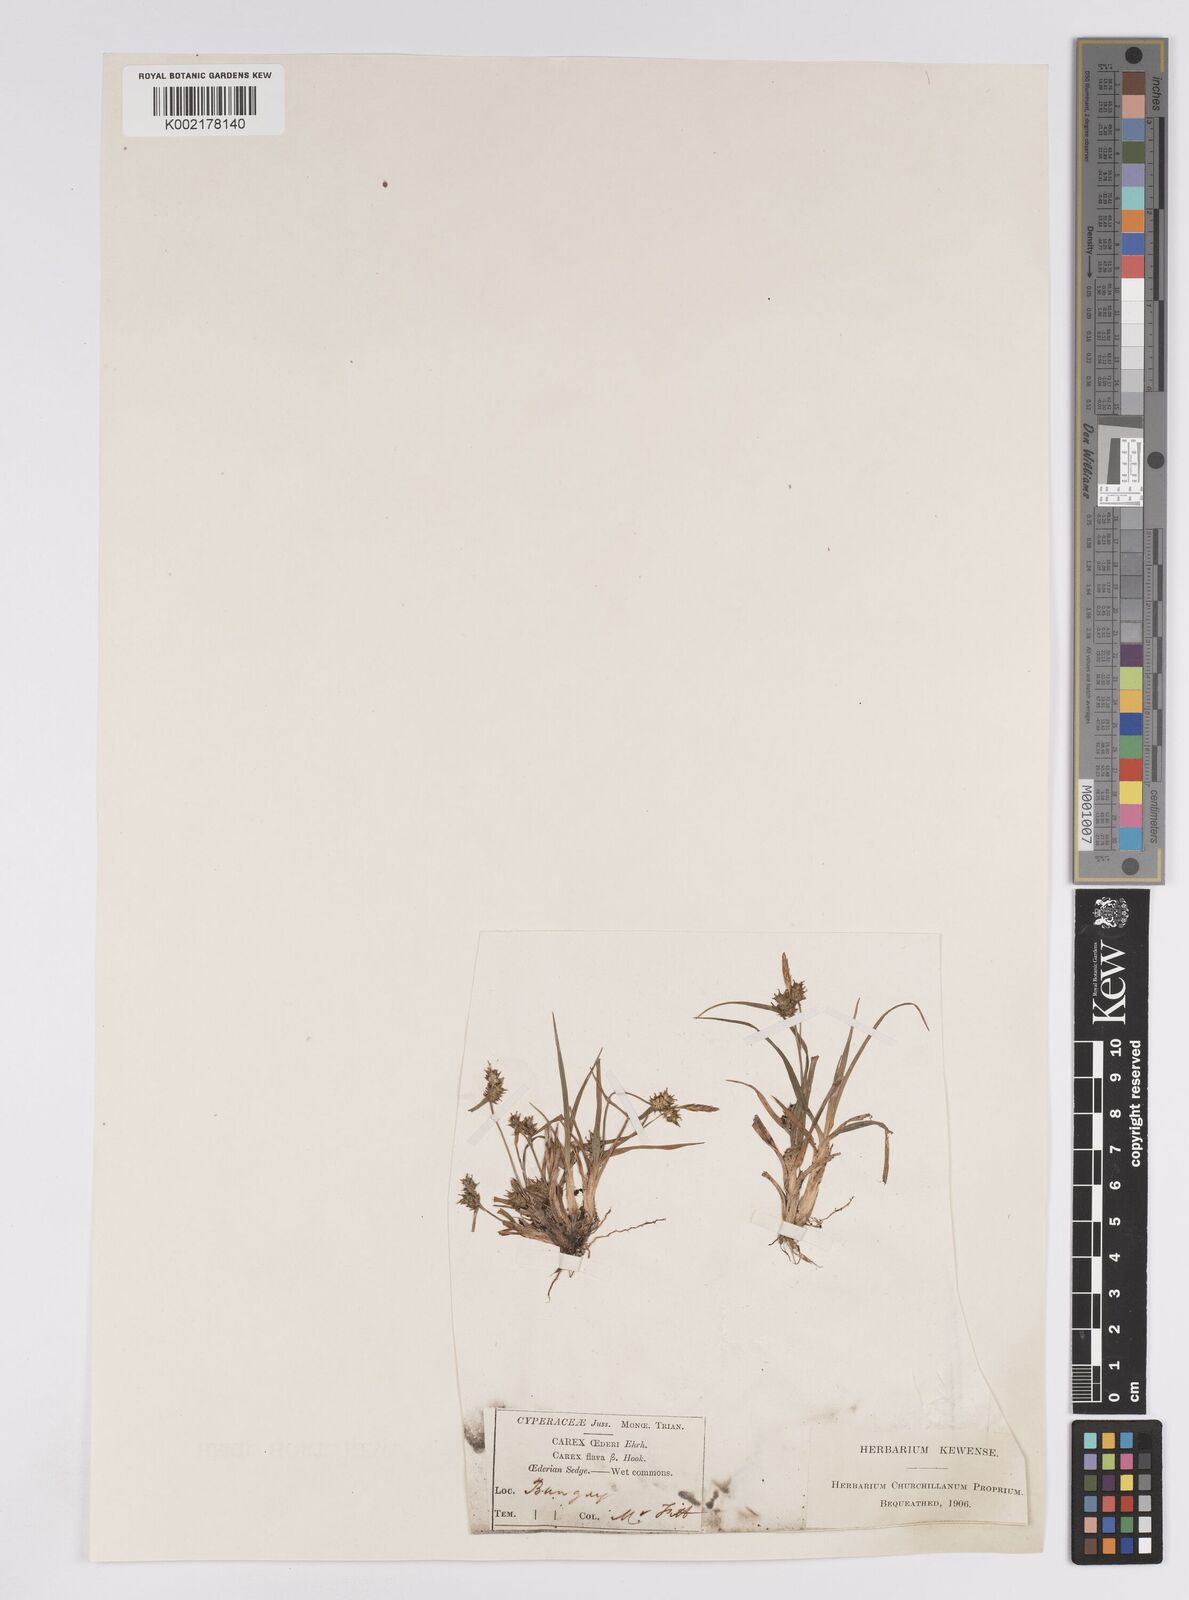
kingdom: Plantae
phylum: Tracheophyta
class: Liliopsida
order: Poales
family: Cyperaceae
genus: Carex
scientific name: Carex demissa
